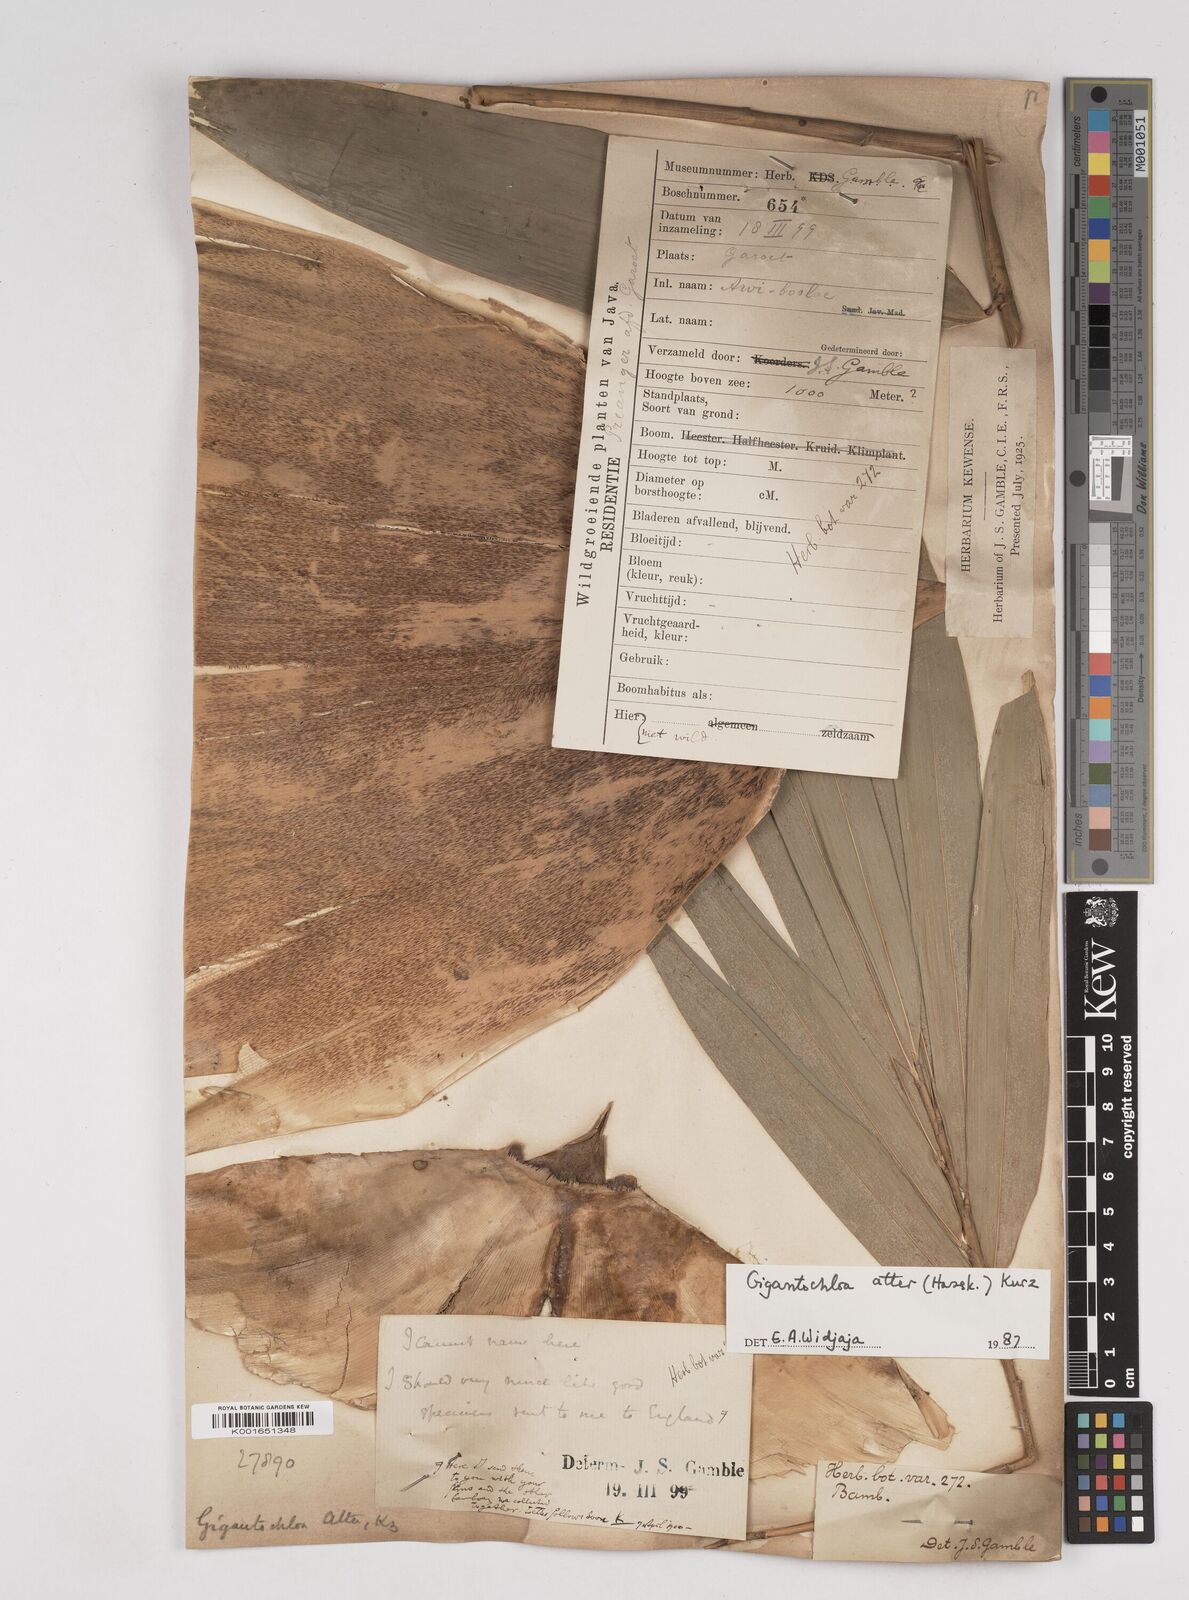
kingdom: Plantae
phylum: Tracheophyta
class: Liliopsida
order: Poales
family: Poaceae
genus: Gigantochloa
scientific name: Gigantochloa atter
